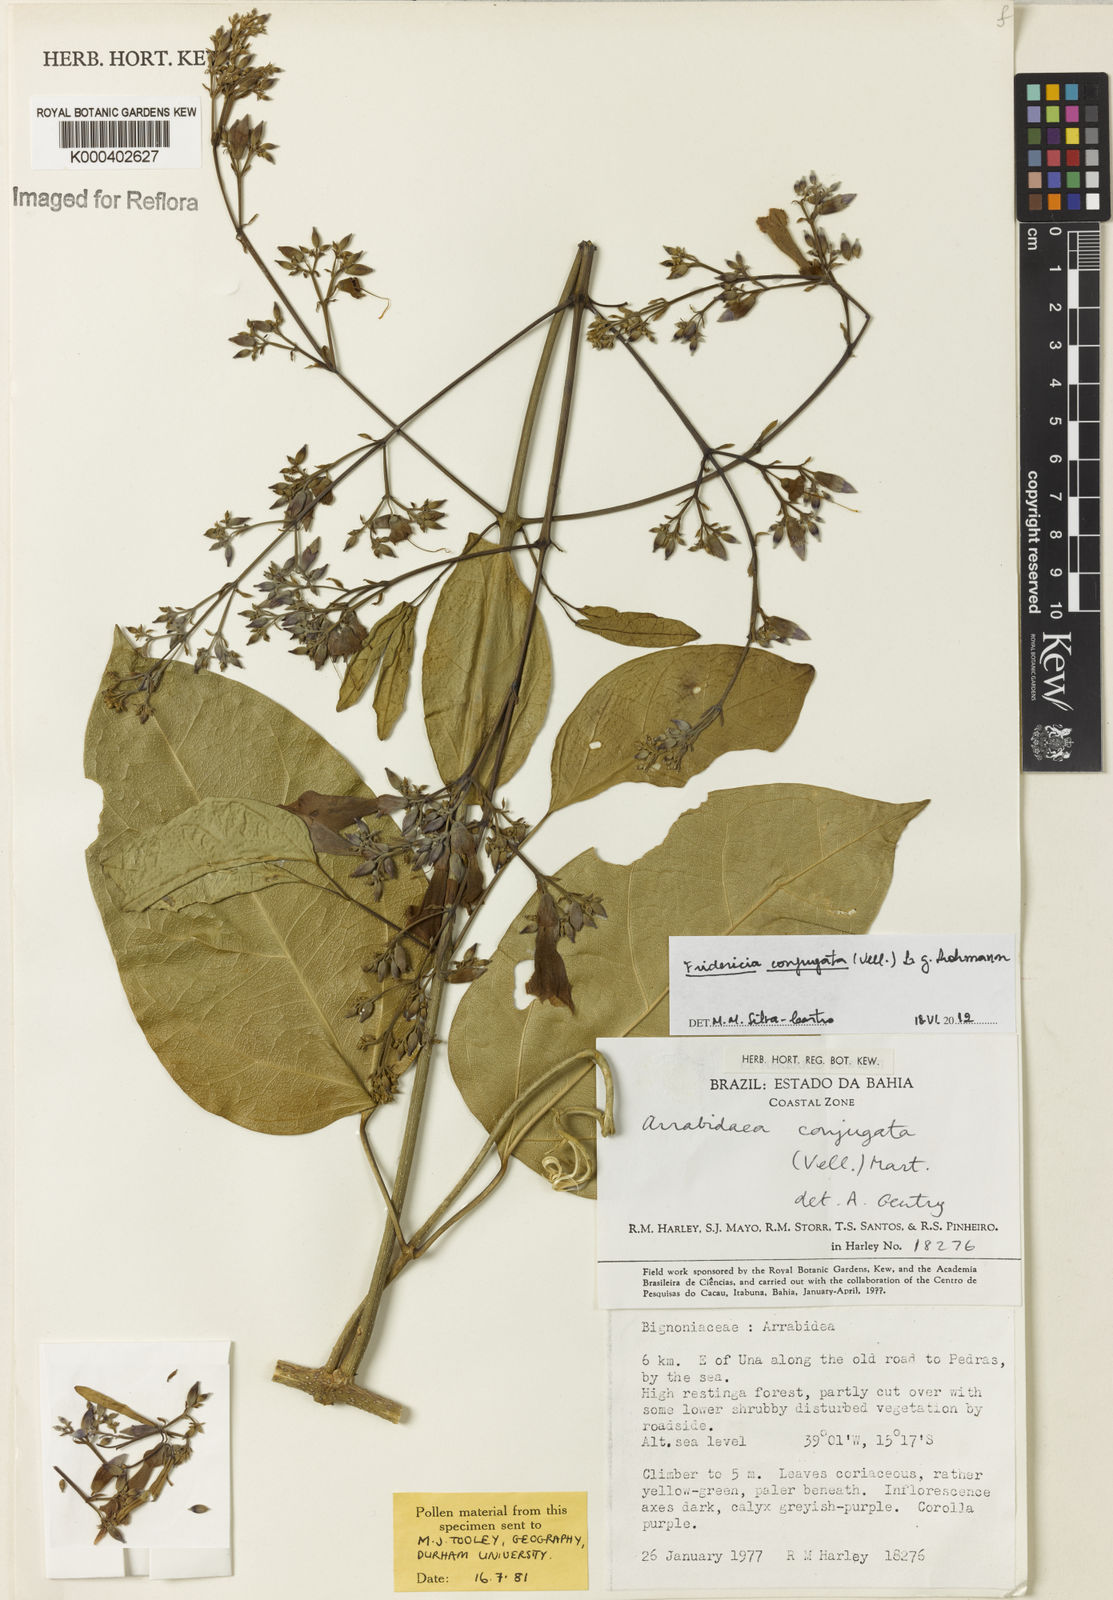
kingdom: Plantae
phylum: Tracheophyta
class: Magnoliopsida
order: Lamiales
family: Bignoniaceae
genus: Fridericia
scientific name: Fridericia conjugata
